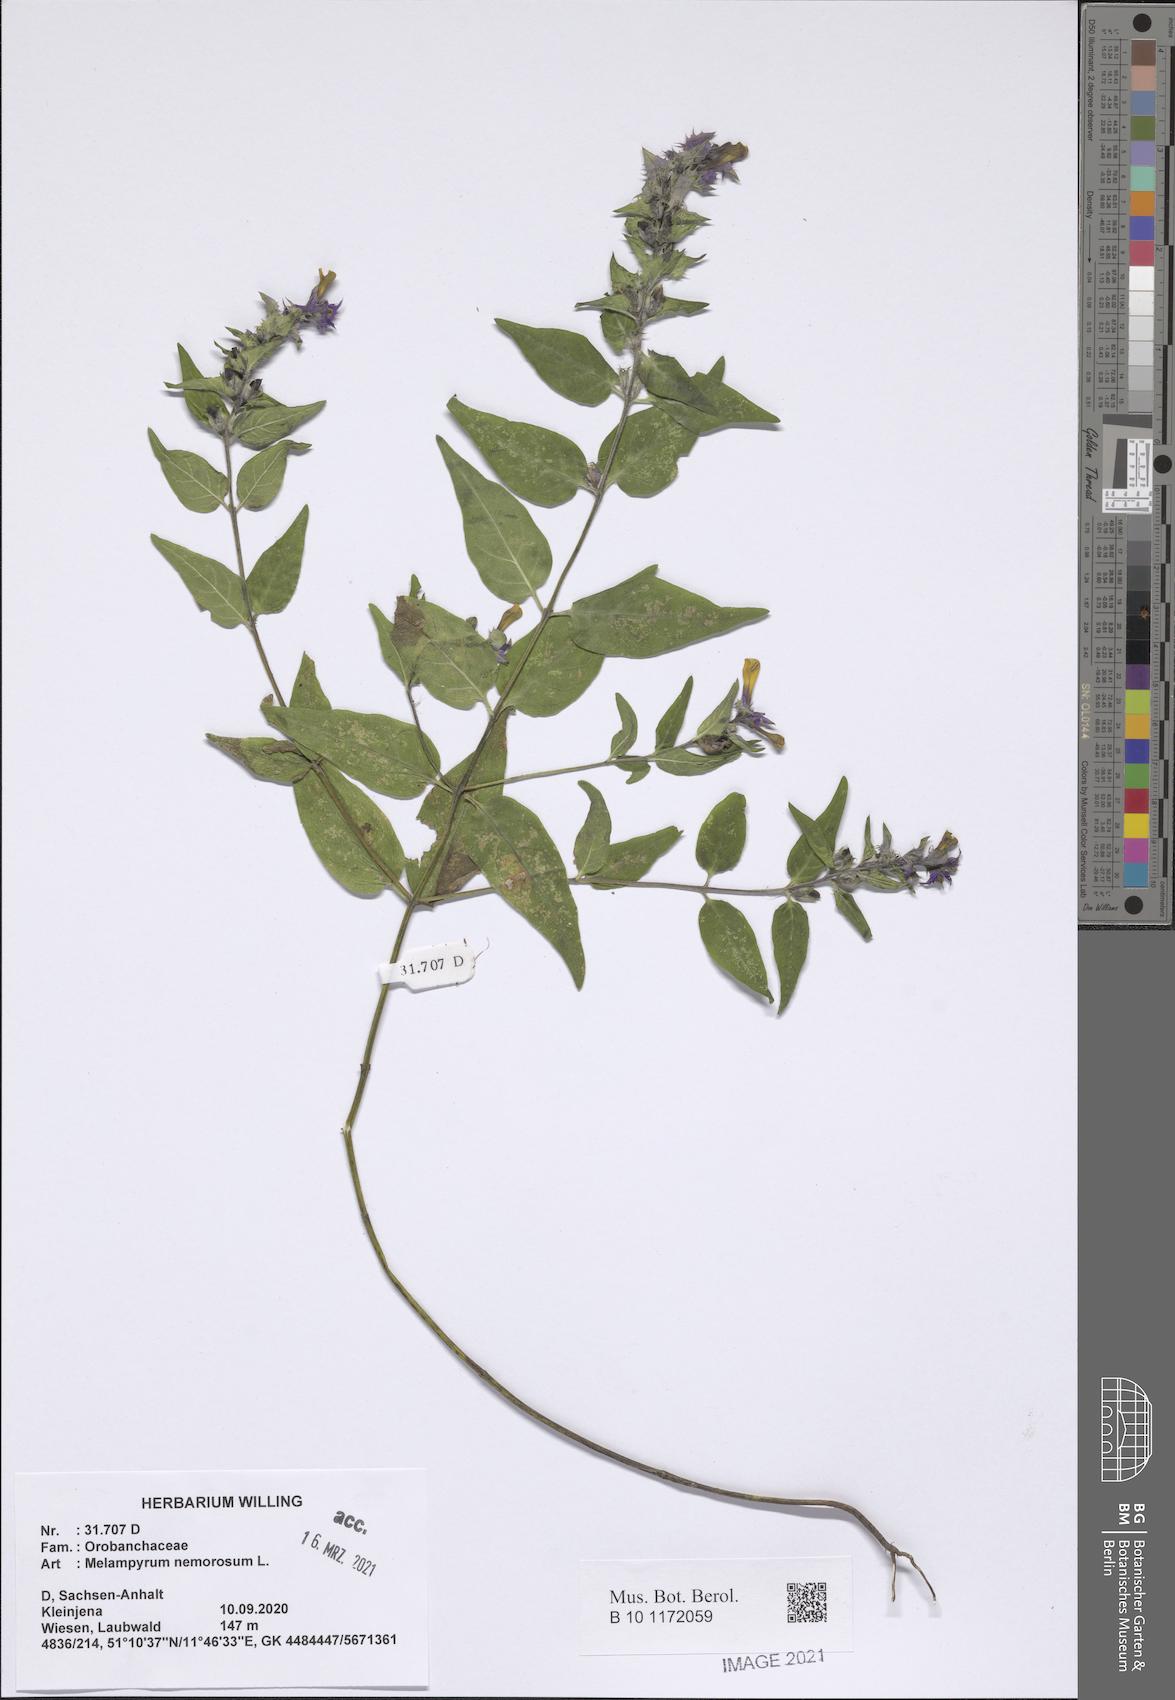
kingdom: Plantae
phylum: Tracheophyta
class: Magnoliopsida
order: Lamiales
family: Orobanchaceae
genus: Melampyrum
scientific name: Melampyrum nemorosum
